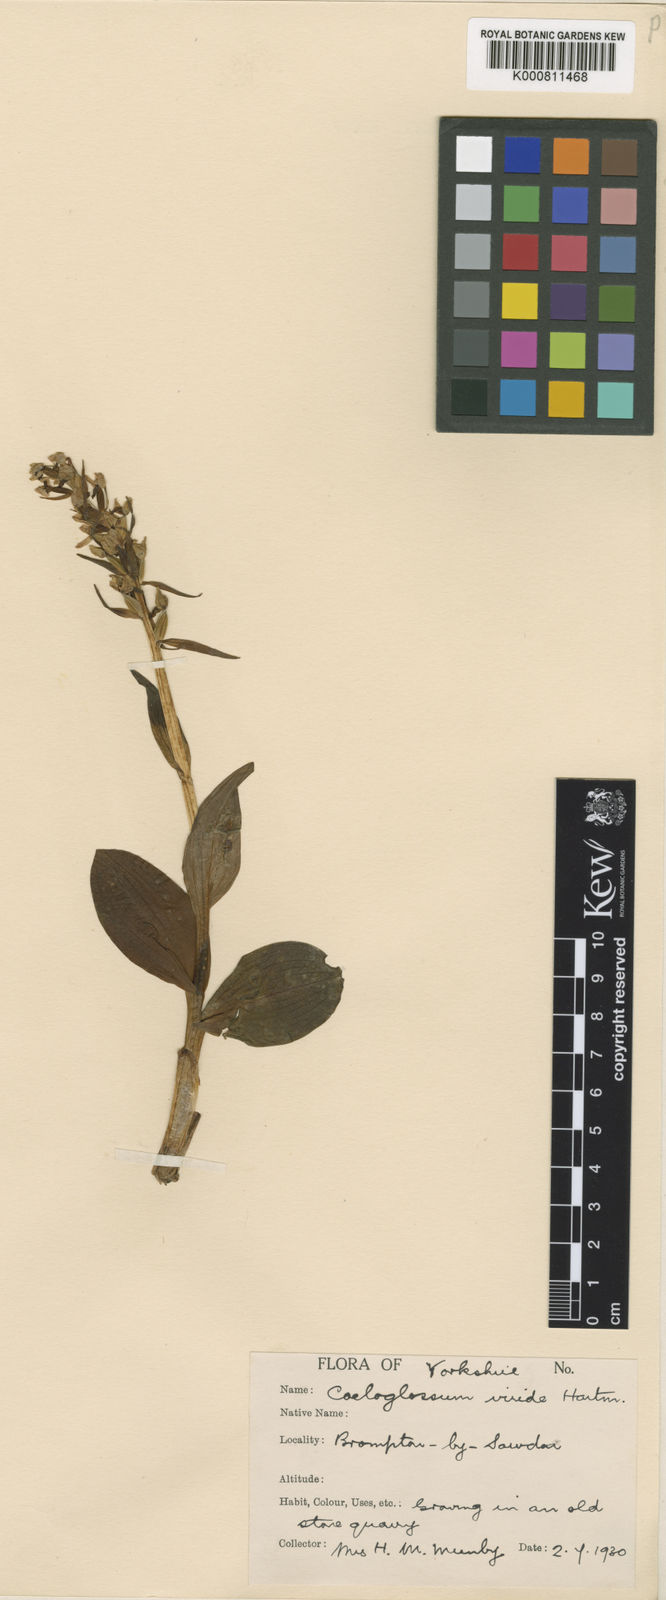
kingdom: Plantae
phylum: Tracheophyta
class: Liliopsida
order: Asparagales
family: Orchidaceae
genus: Dactylorhiza
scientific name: Dactylorhiza viridis
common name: Longbract frog orchid
